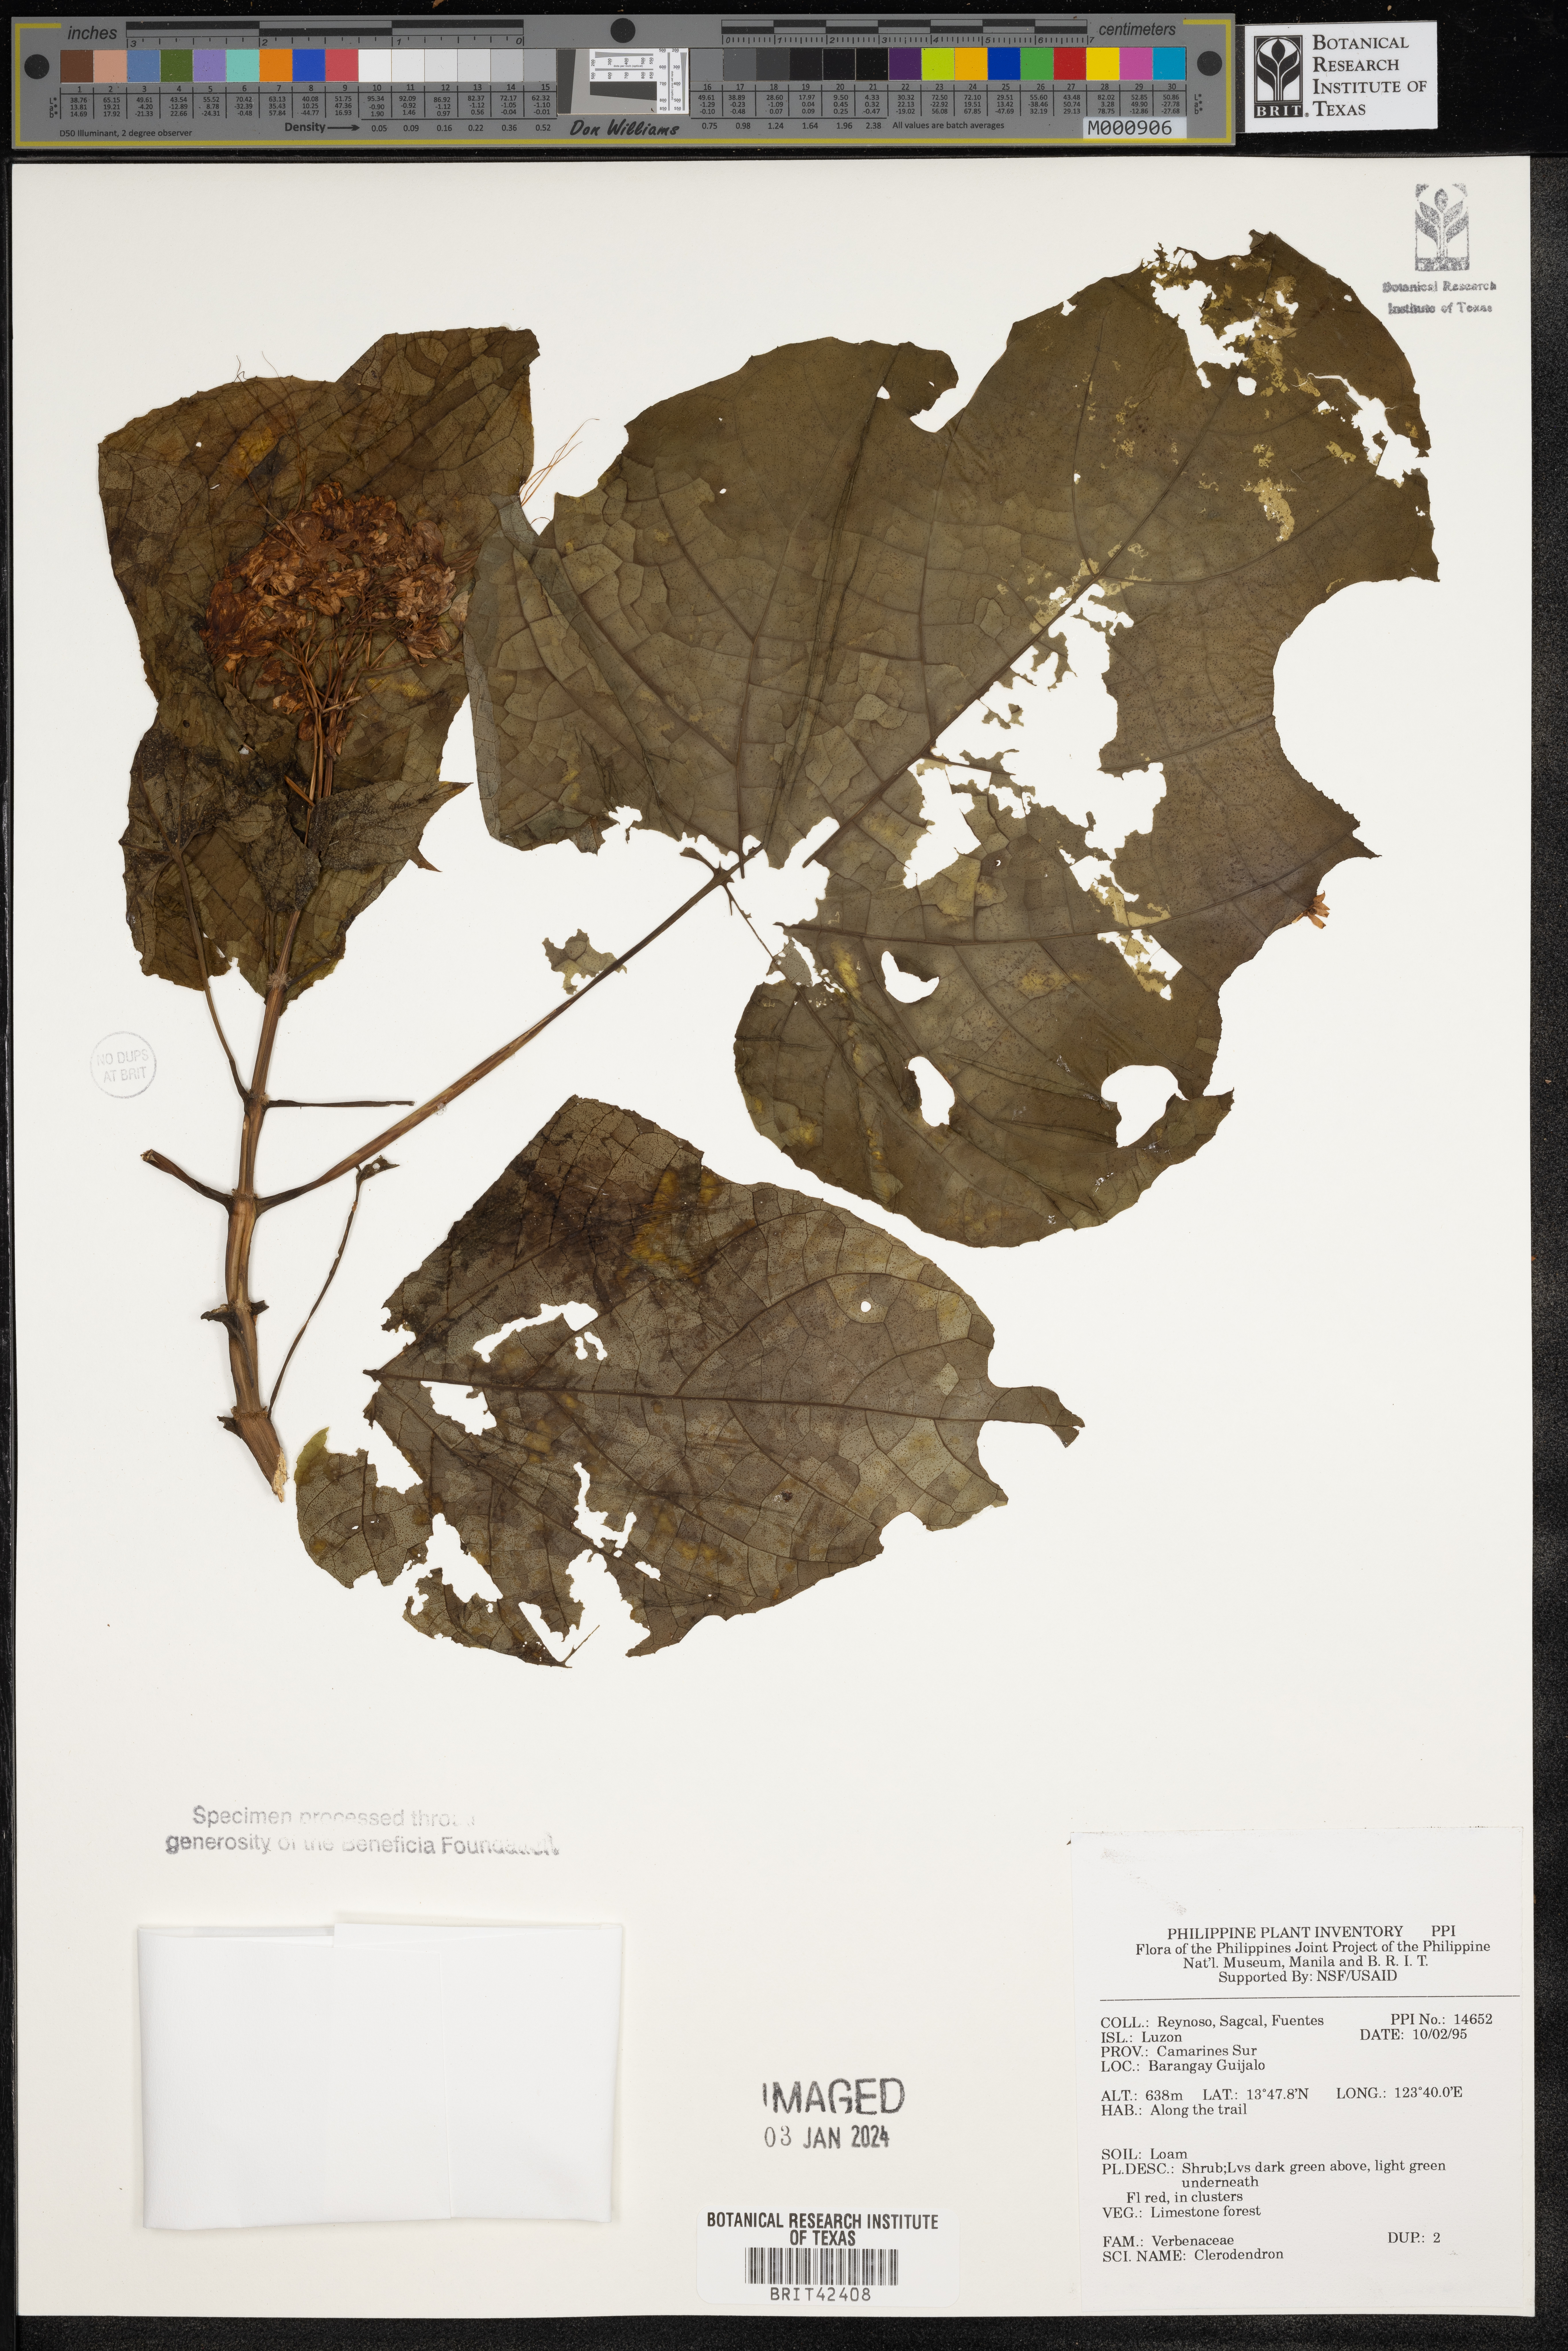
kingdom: Plantae
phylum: Tracheophyta
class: Magnoliopsida
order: Lamiales
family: Lamiaceae
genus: Clerodendrum
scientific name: Clerodendrum
